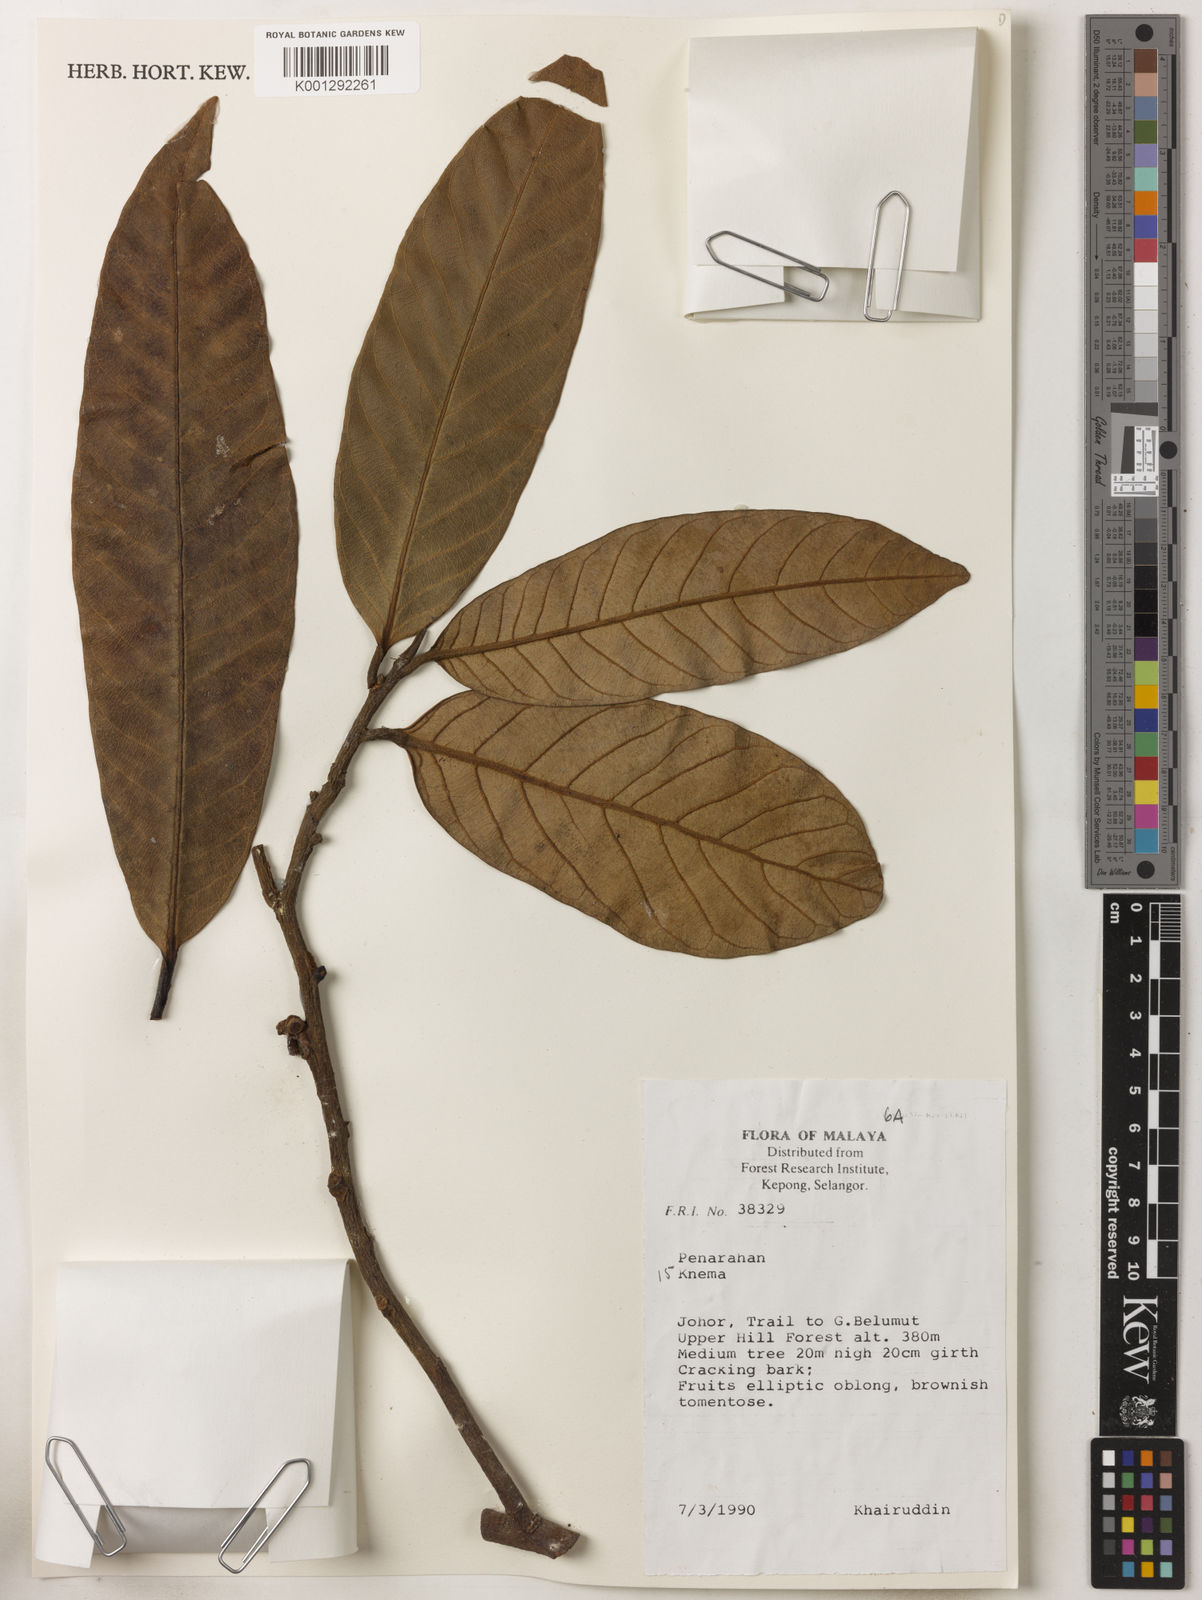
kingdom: Plantae
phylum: Tracheophyta
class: Magnoliopsida
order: Magnoliales
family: Myristicaceae
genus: Knema
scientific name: Knema
